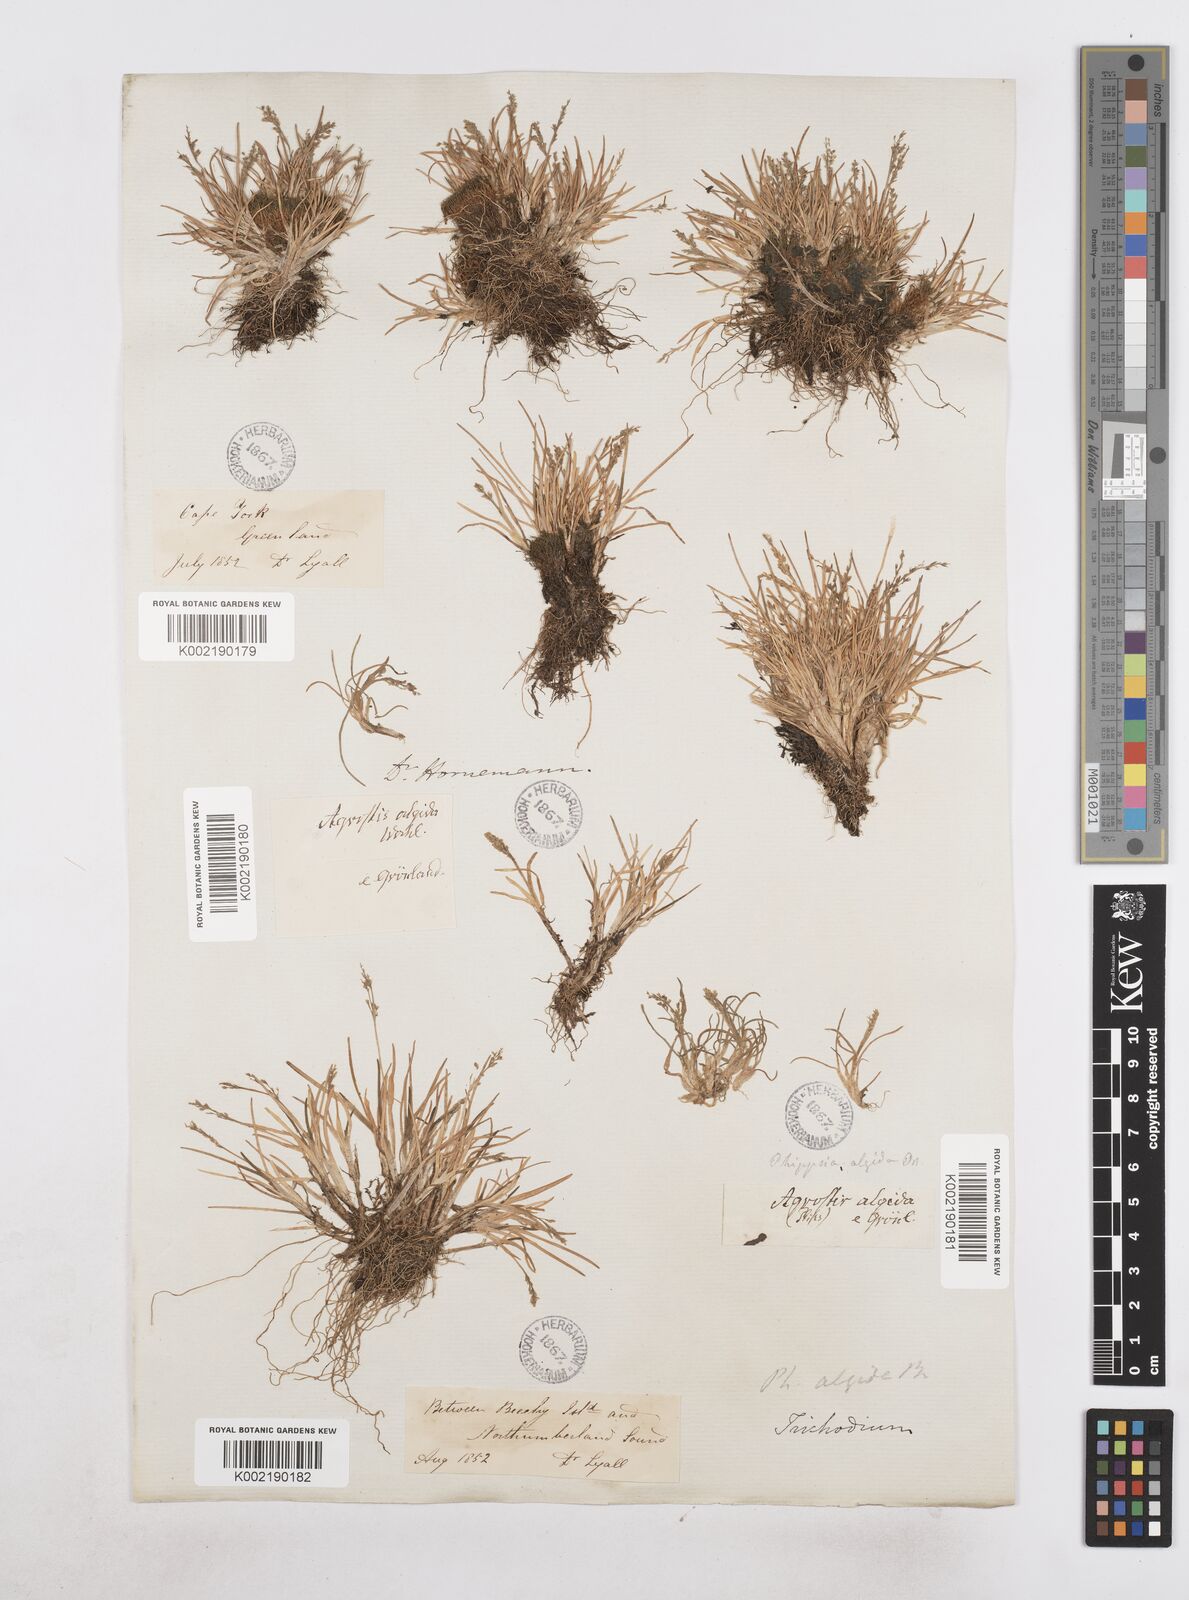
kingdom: Plantae
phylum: Tracheophyta
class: Liliopsida
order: Poales
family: Poaceae
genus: Phippsia
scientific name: Phippsia algida
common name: Ice grass
